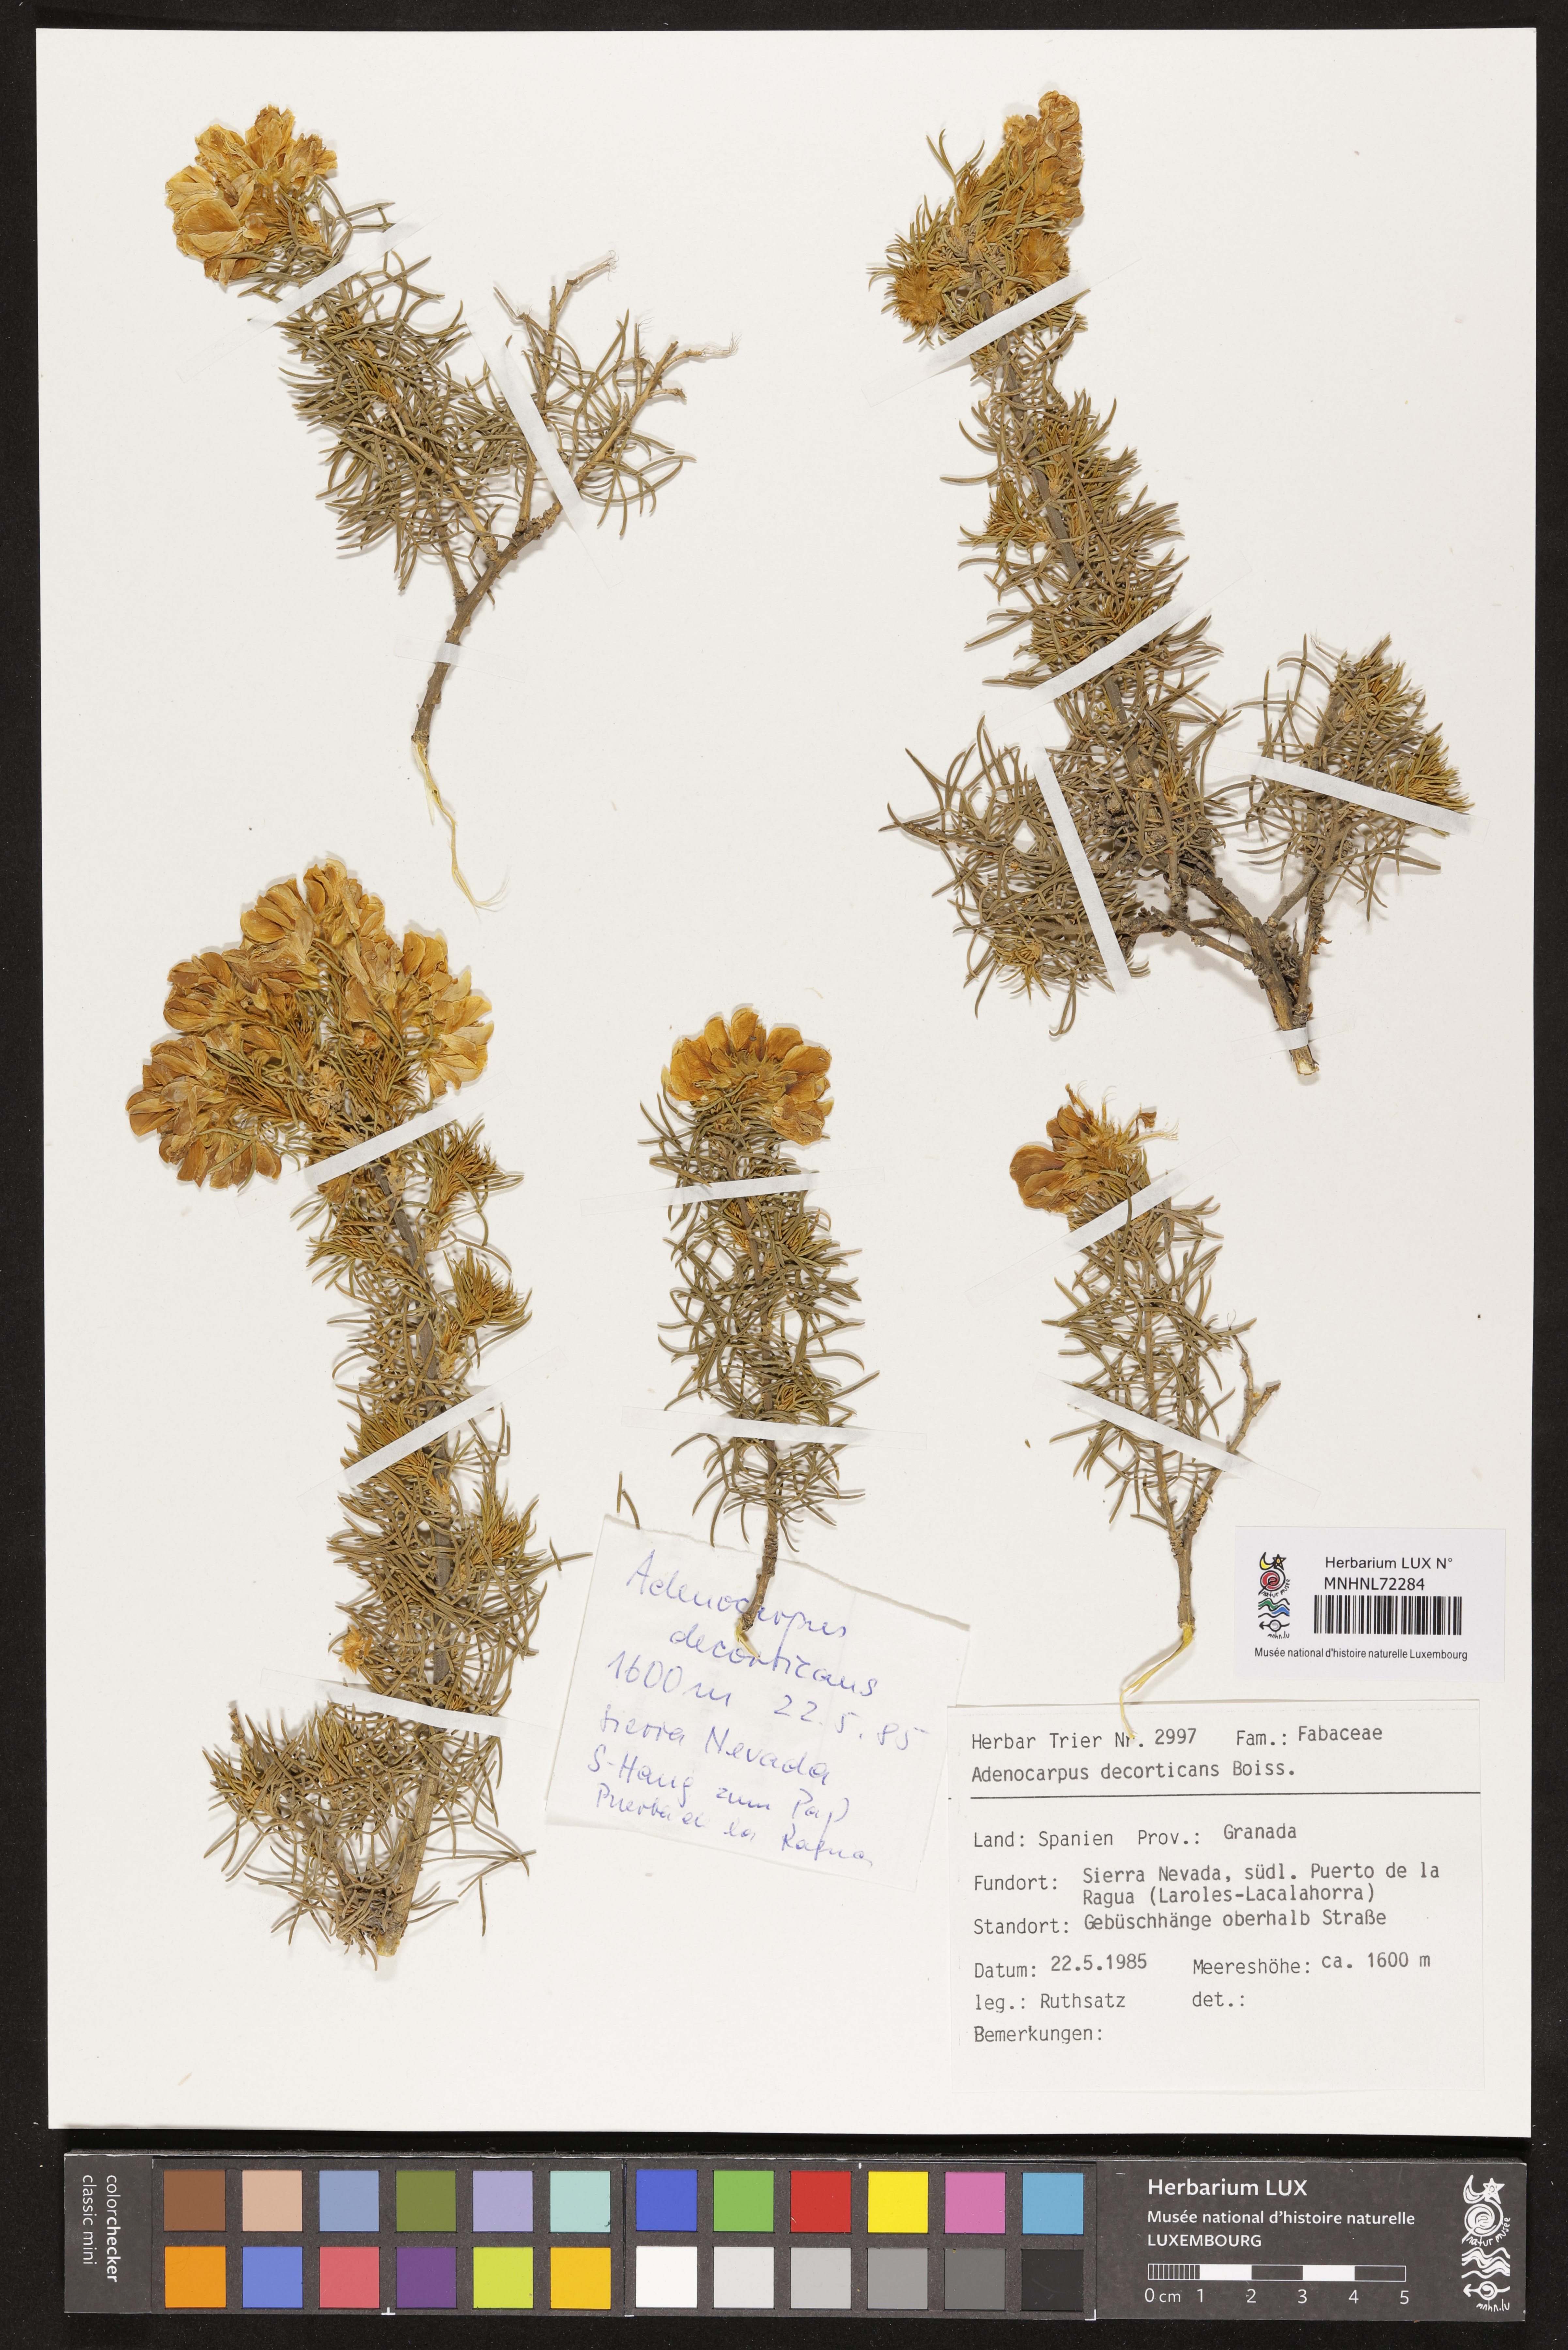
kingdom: Plantae
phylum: Tracheophyta
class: Magnoliopsida
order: Fabales
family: Fabaceae
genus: Adenocarpus
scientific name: Adenocarpus decorticans
